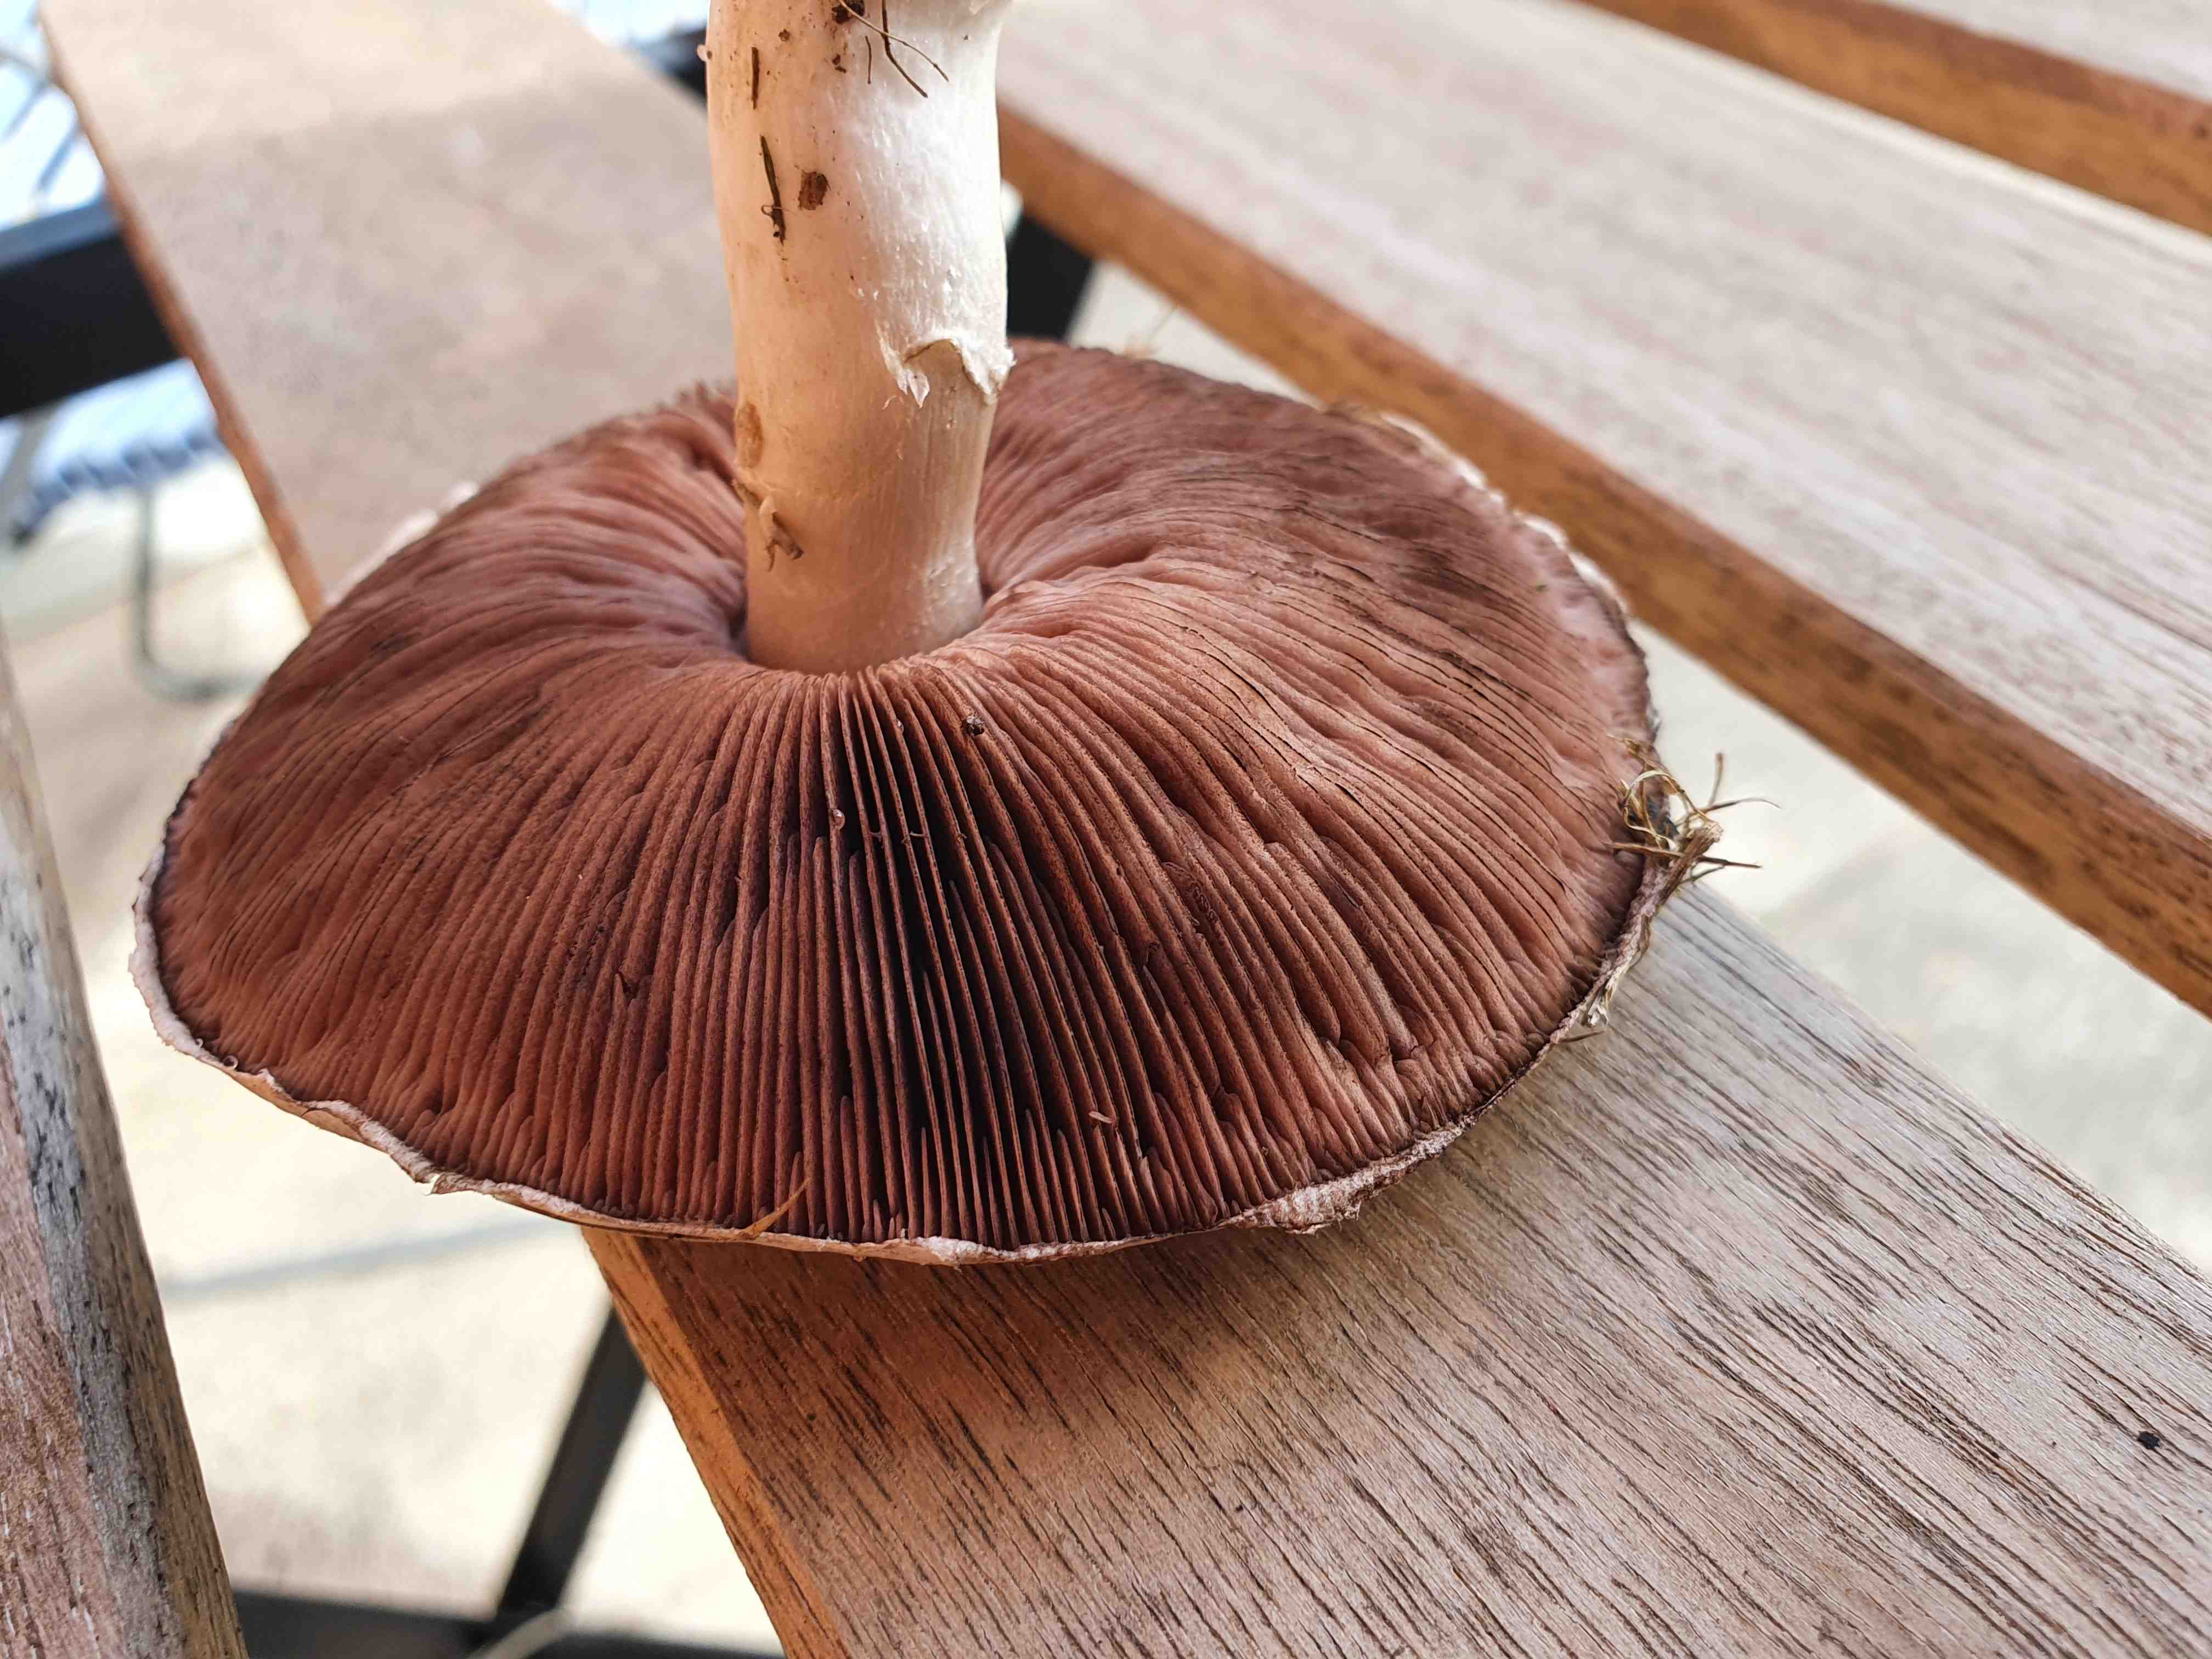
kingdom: Fungi
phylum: Basidiomycota
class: Agaricomycetes
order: Agaricales
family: Agaricaceae
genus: Agaricus
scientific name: Agaricus
